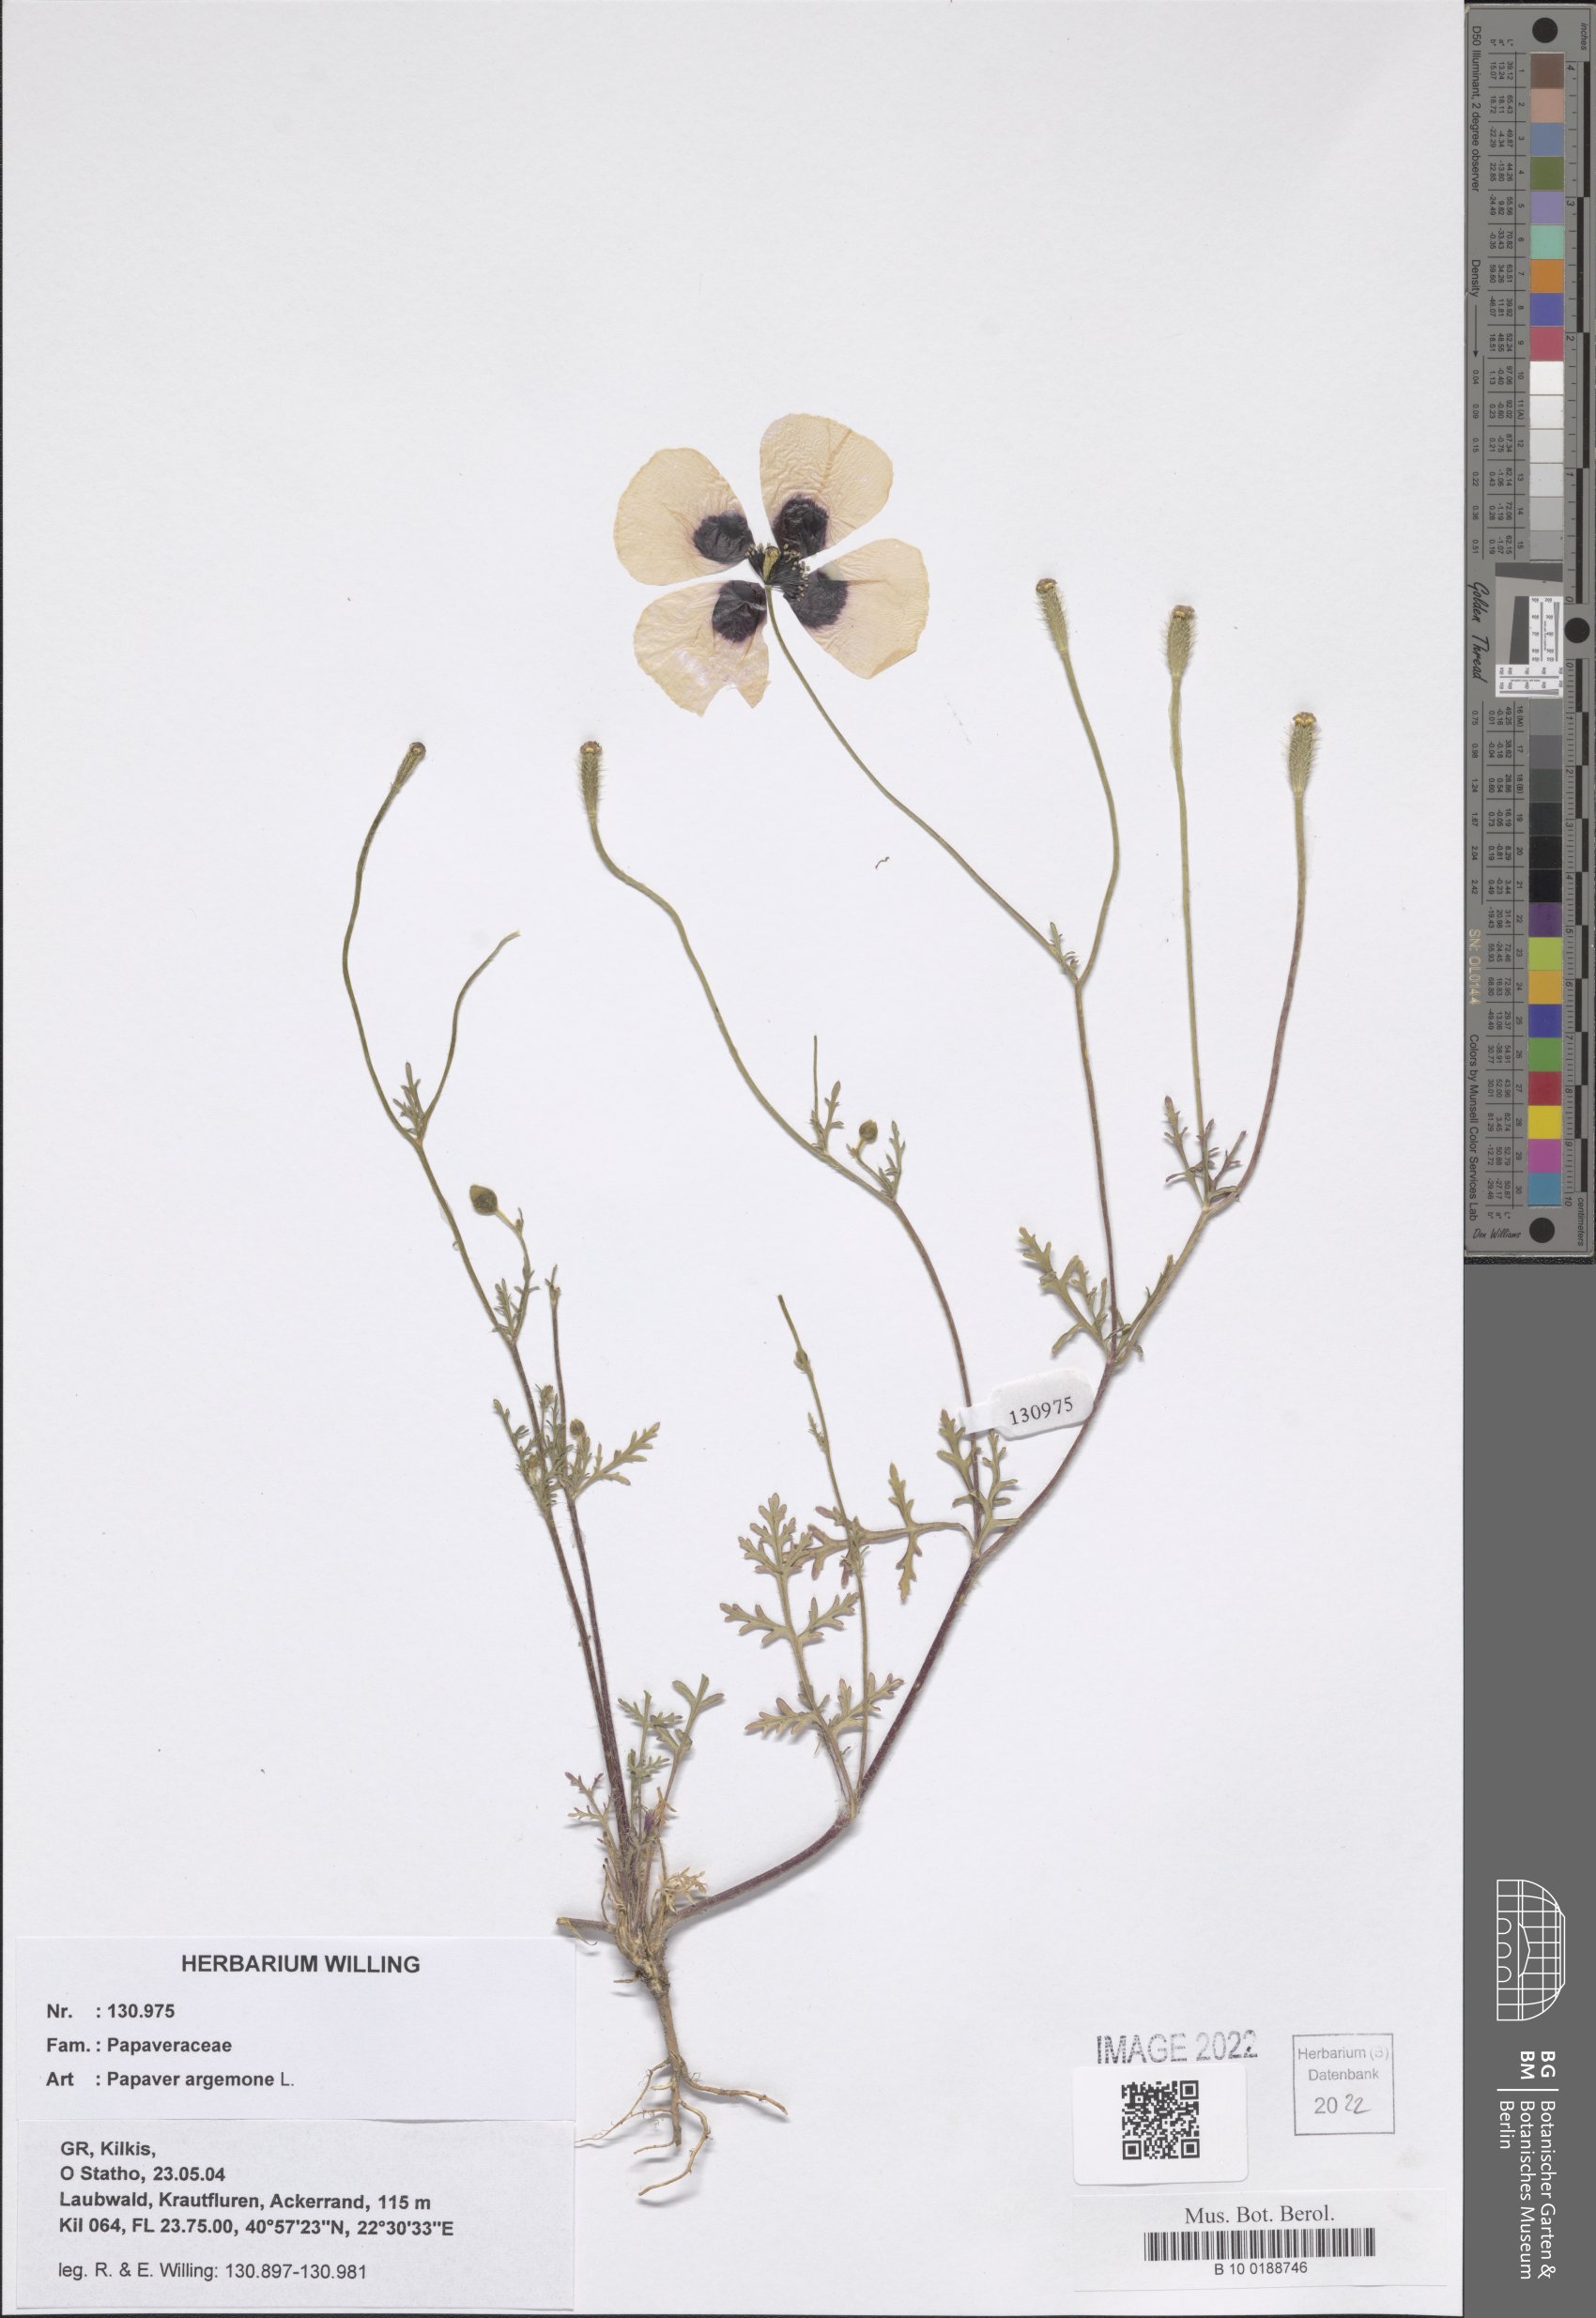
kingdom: Plantae
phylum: Tracheophyta
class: Magnoliopsida
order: Ranunculales
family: Papaveraceae
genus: Roemeria
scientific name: Roemeria argemone
